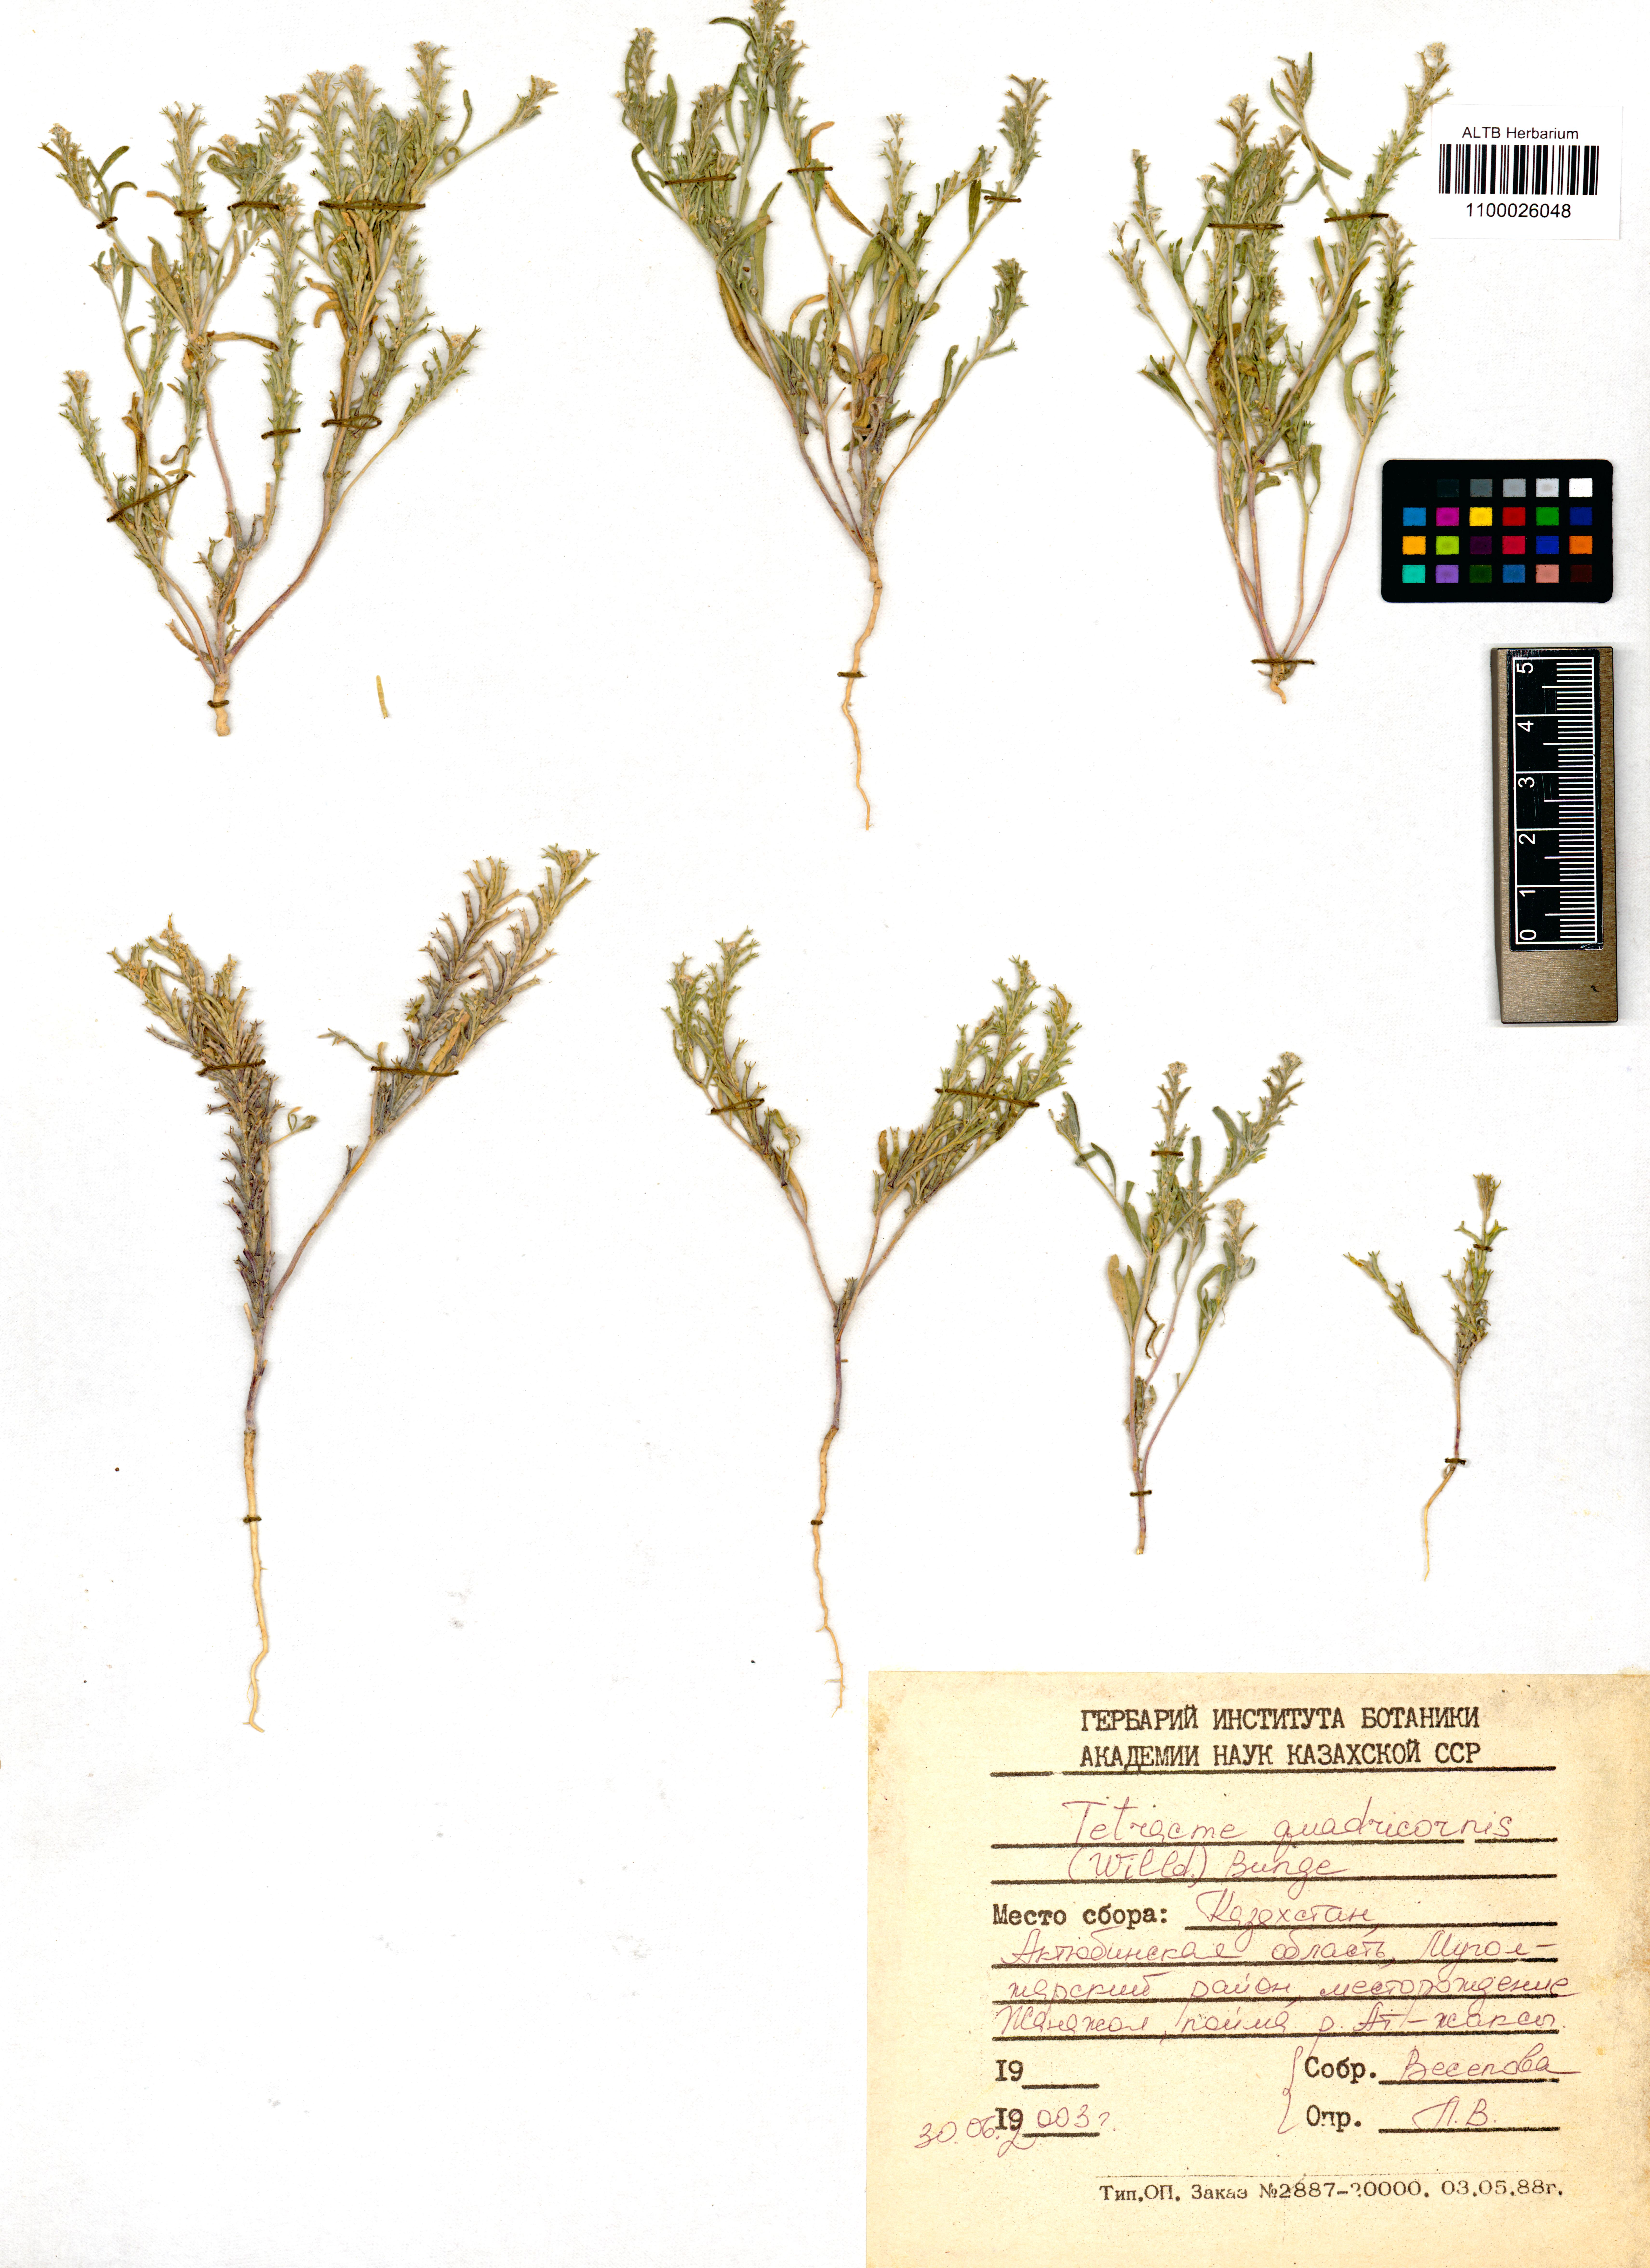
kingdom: Plantae
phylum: Tracheophyta
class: Magnoliopsida
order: Brassicales
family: Brassicaceae
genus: Tetracme
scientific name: Tetracme quadricornis
